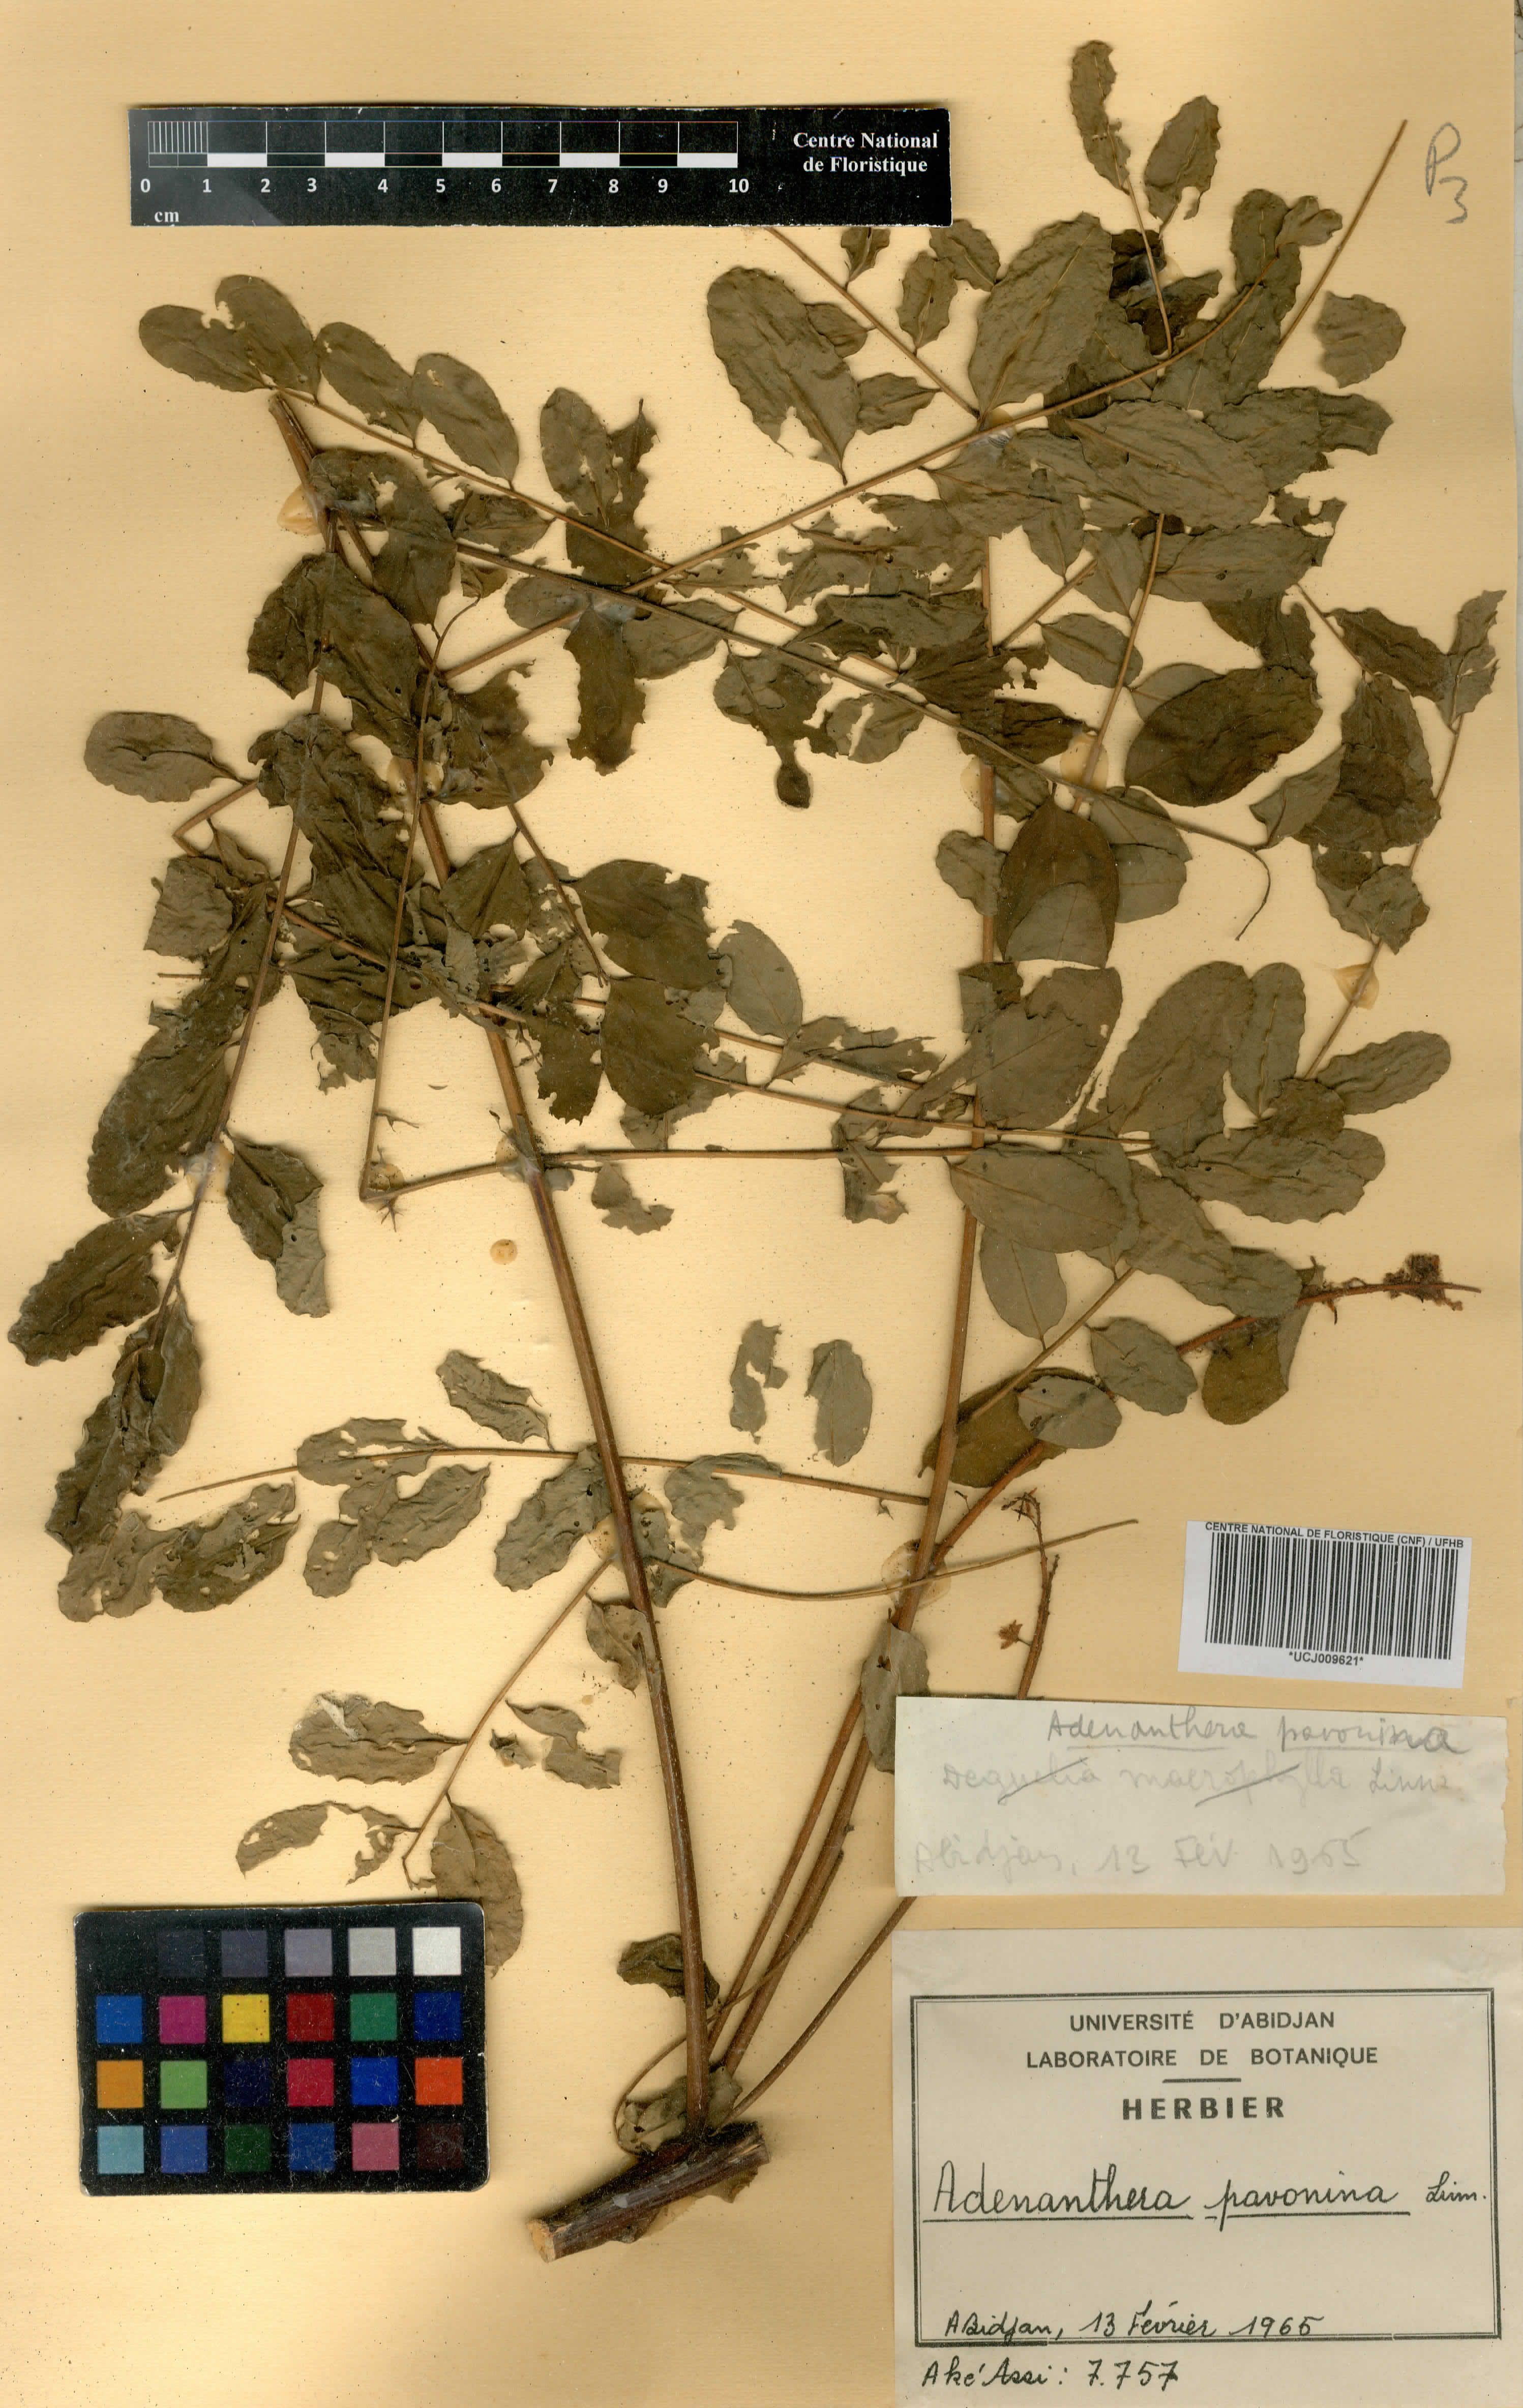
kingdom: Plantae
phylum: Tracheophyta
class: Magnoliopsida
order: Fabales
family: Fabaceae
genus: Adenanthera
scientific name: Adenanthera pavonina
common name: Red beadtree
